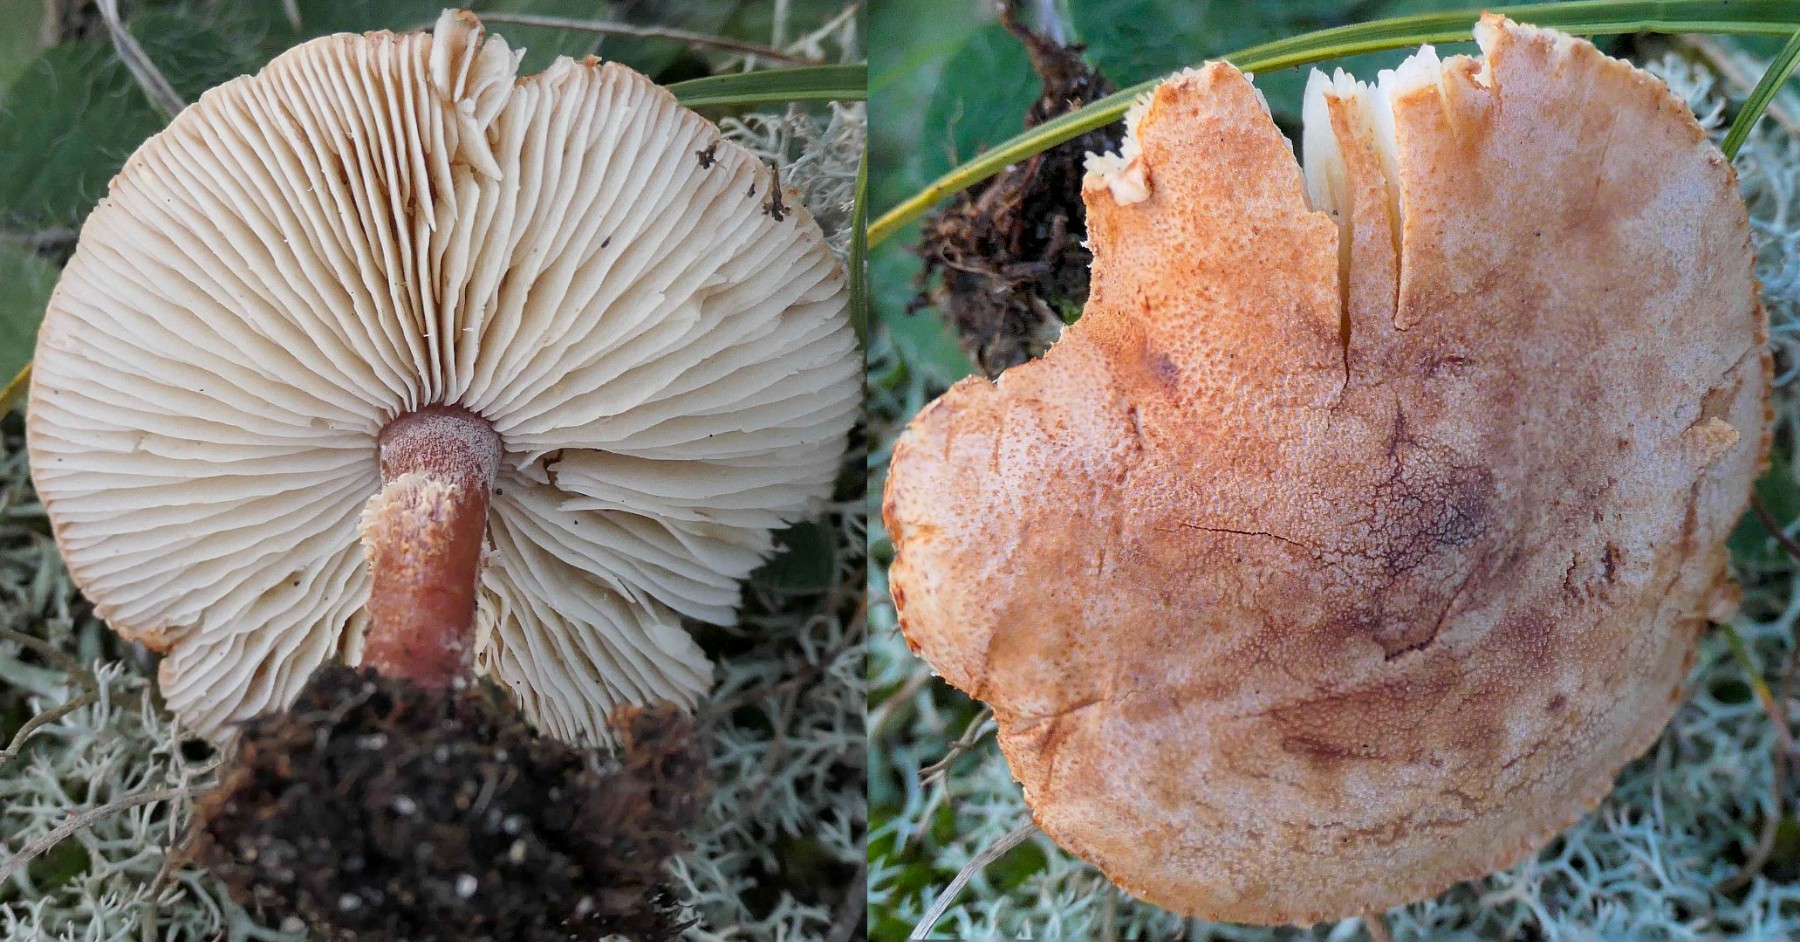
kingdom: Fungi
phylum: Basidiomycota
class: Agaricomycetes
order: Agaricales
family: Agaricaceae
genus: Cystodermella
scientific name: Cystodermella
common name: grynhat
